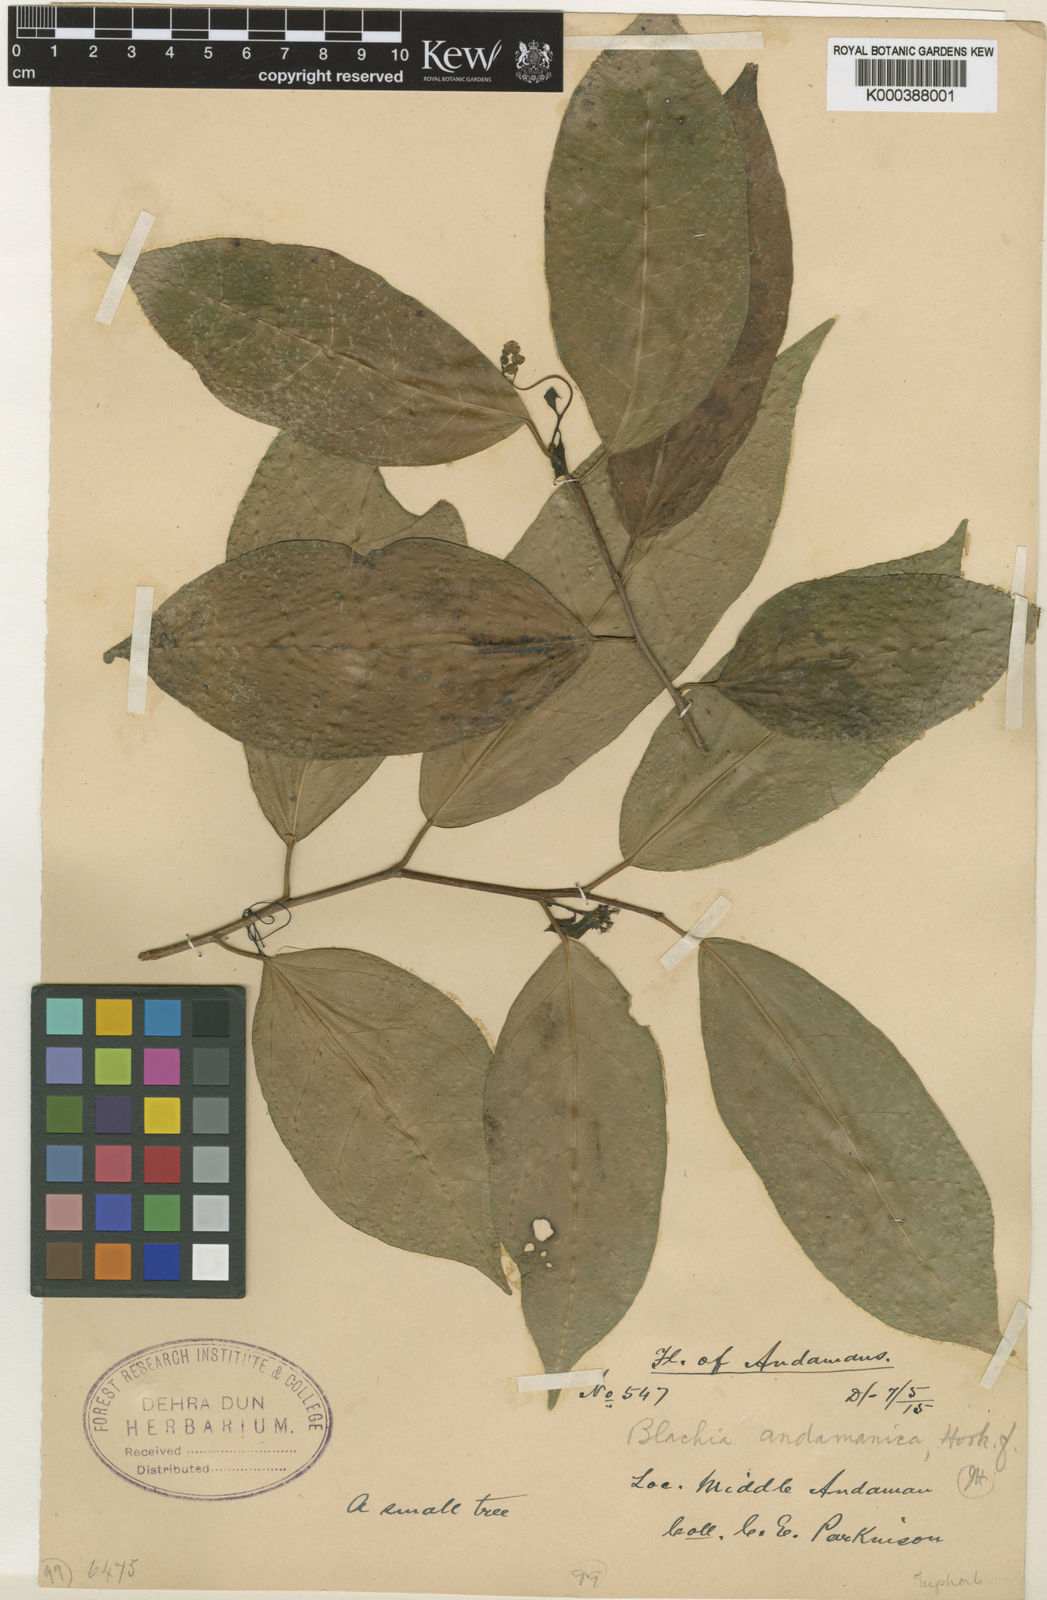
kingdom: Plantae
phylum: Tracheophyta
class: Magnoliopsida
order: Malpighiales
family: Euphorbiaceae
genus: Blachia
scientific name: Blachia andamanica
